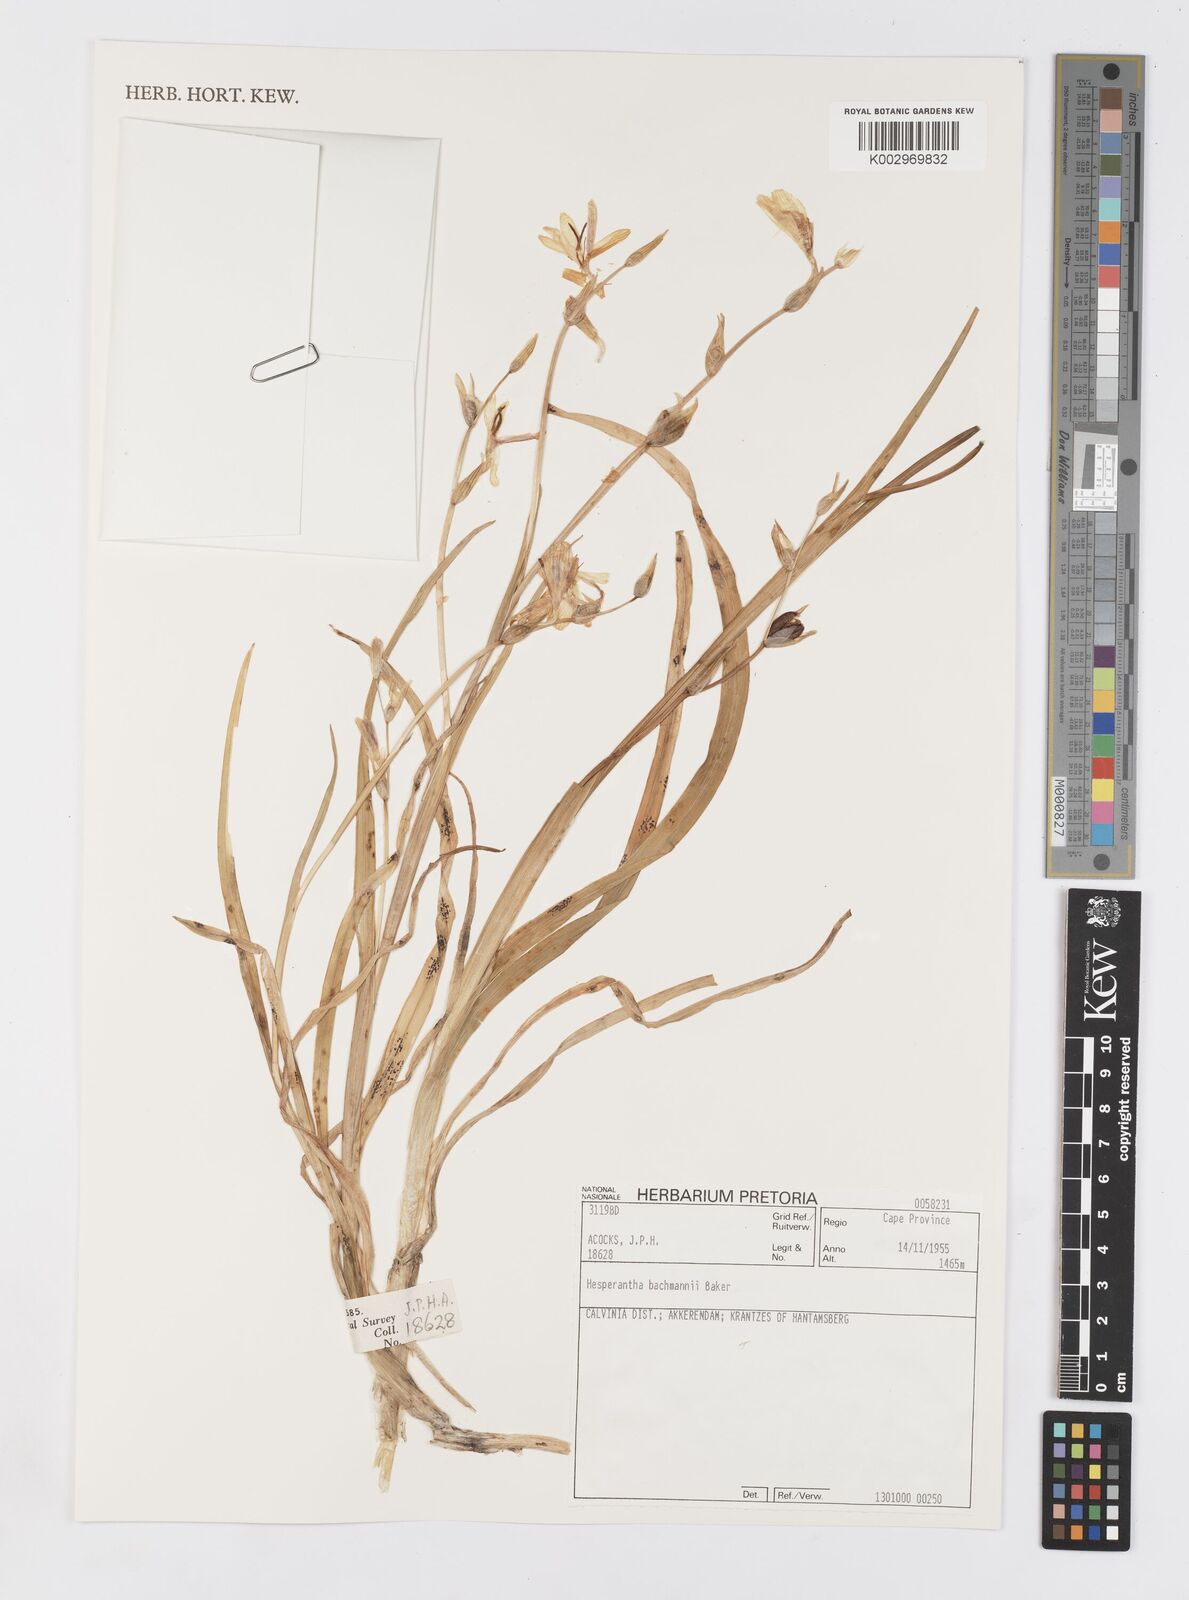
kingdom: Plantae
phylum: Tracheophyta
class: Liliopsida
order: Asparagales
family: Iridaceae
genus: Hesperantha
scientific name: Hesperantha bachmannii
